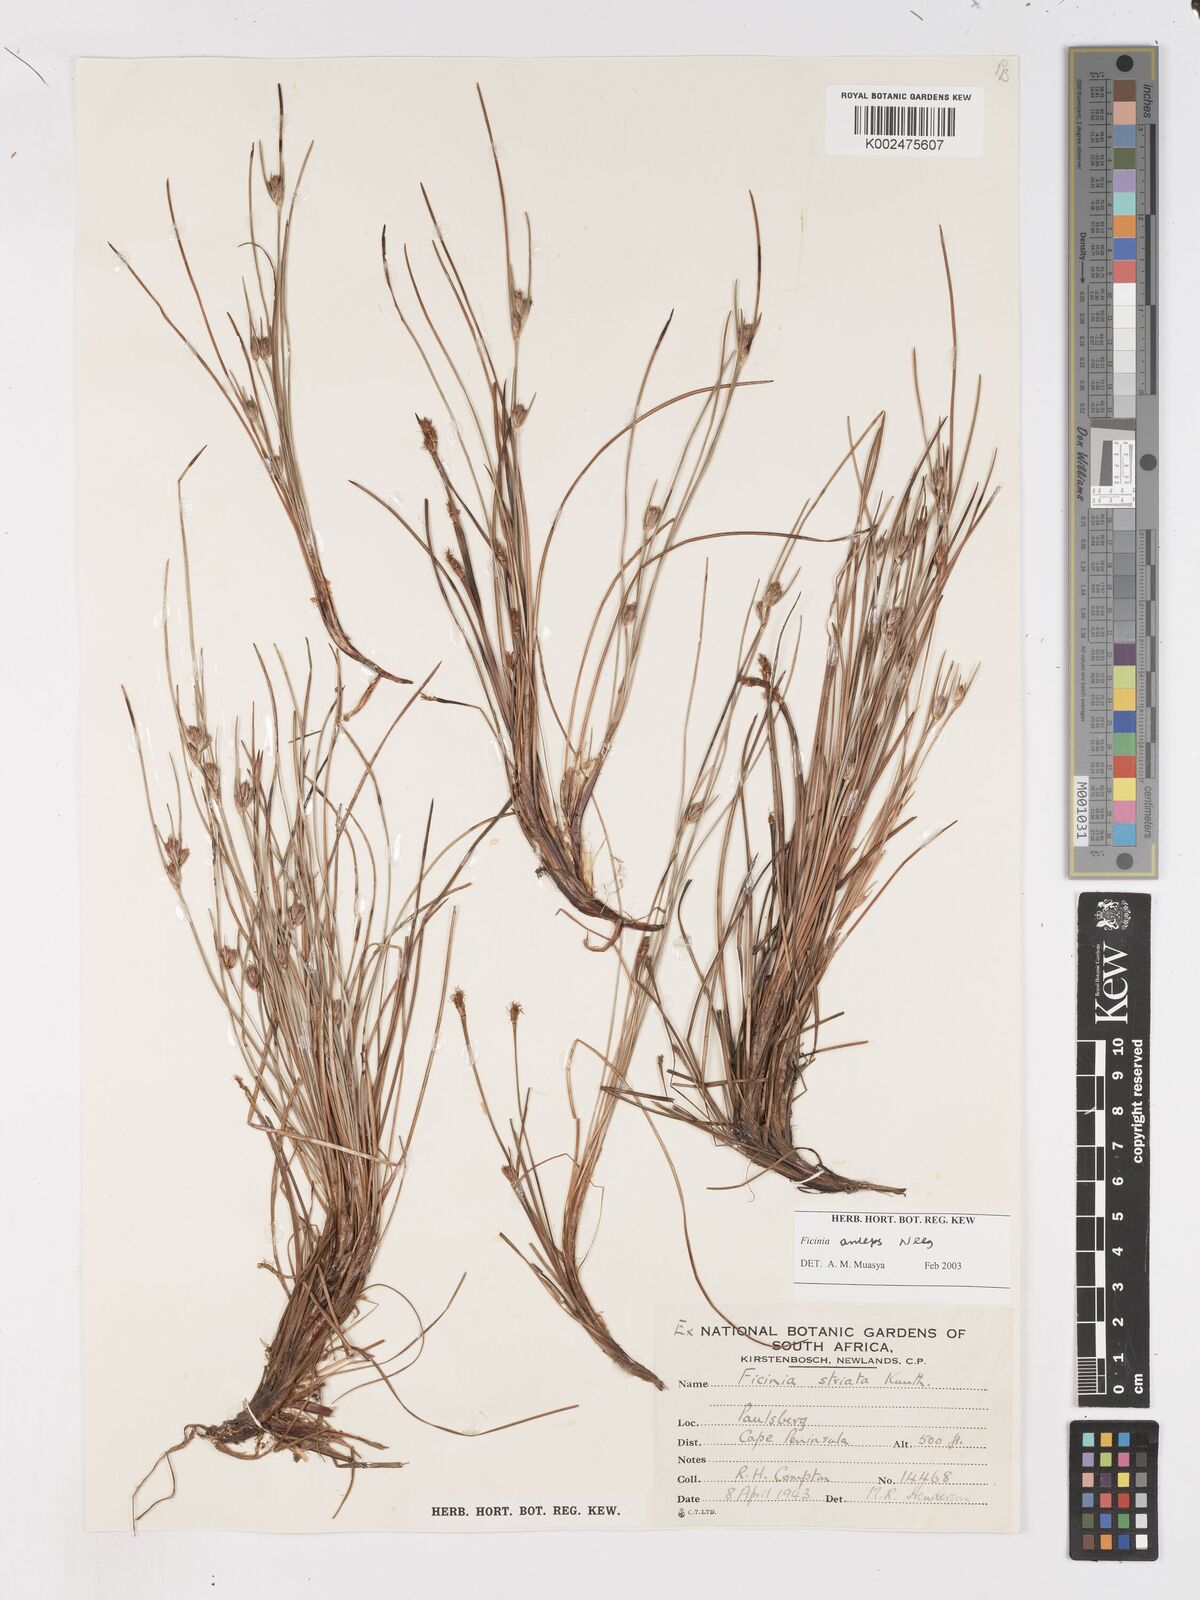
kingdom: Plantae
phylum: Tracheophyta
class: Liliopsida
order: Poales
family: Cyperaceae
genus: Ficinia
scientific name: Ficinia anceps
